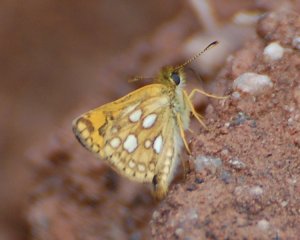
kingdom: Animalia
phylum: Arthropoda
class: Insecta
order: Lepidoptera
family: Hesperiidae
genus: Carterocephalus
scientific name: Carterocephalus palaemon
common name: Chequered Skipper
